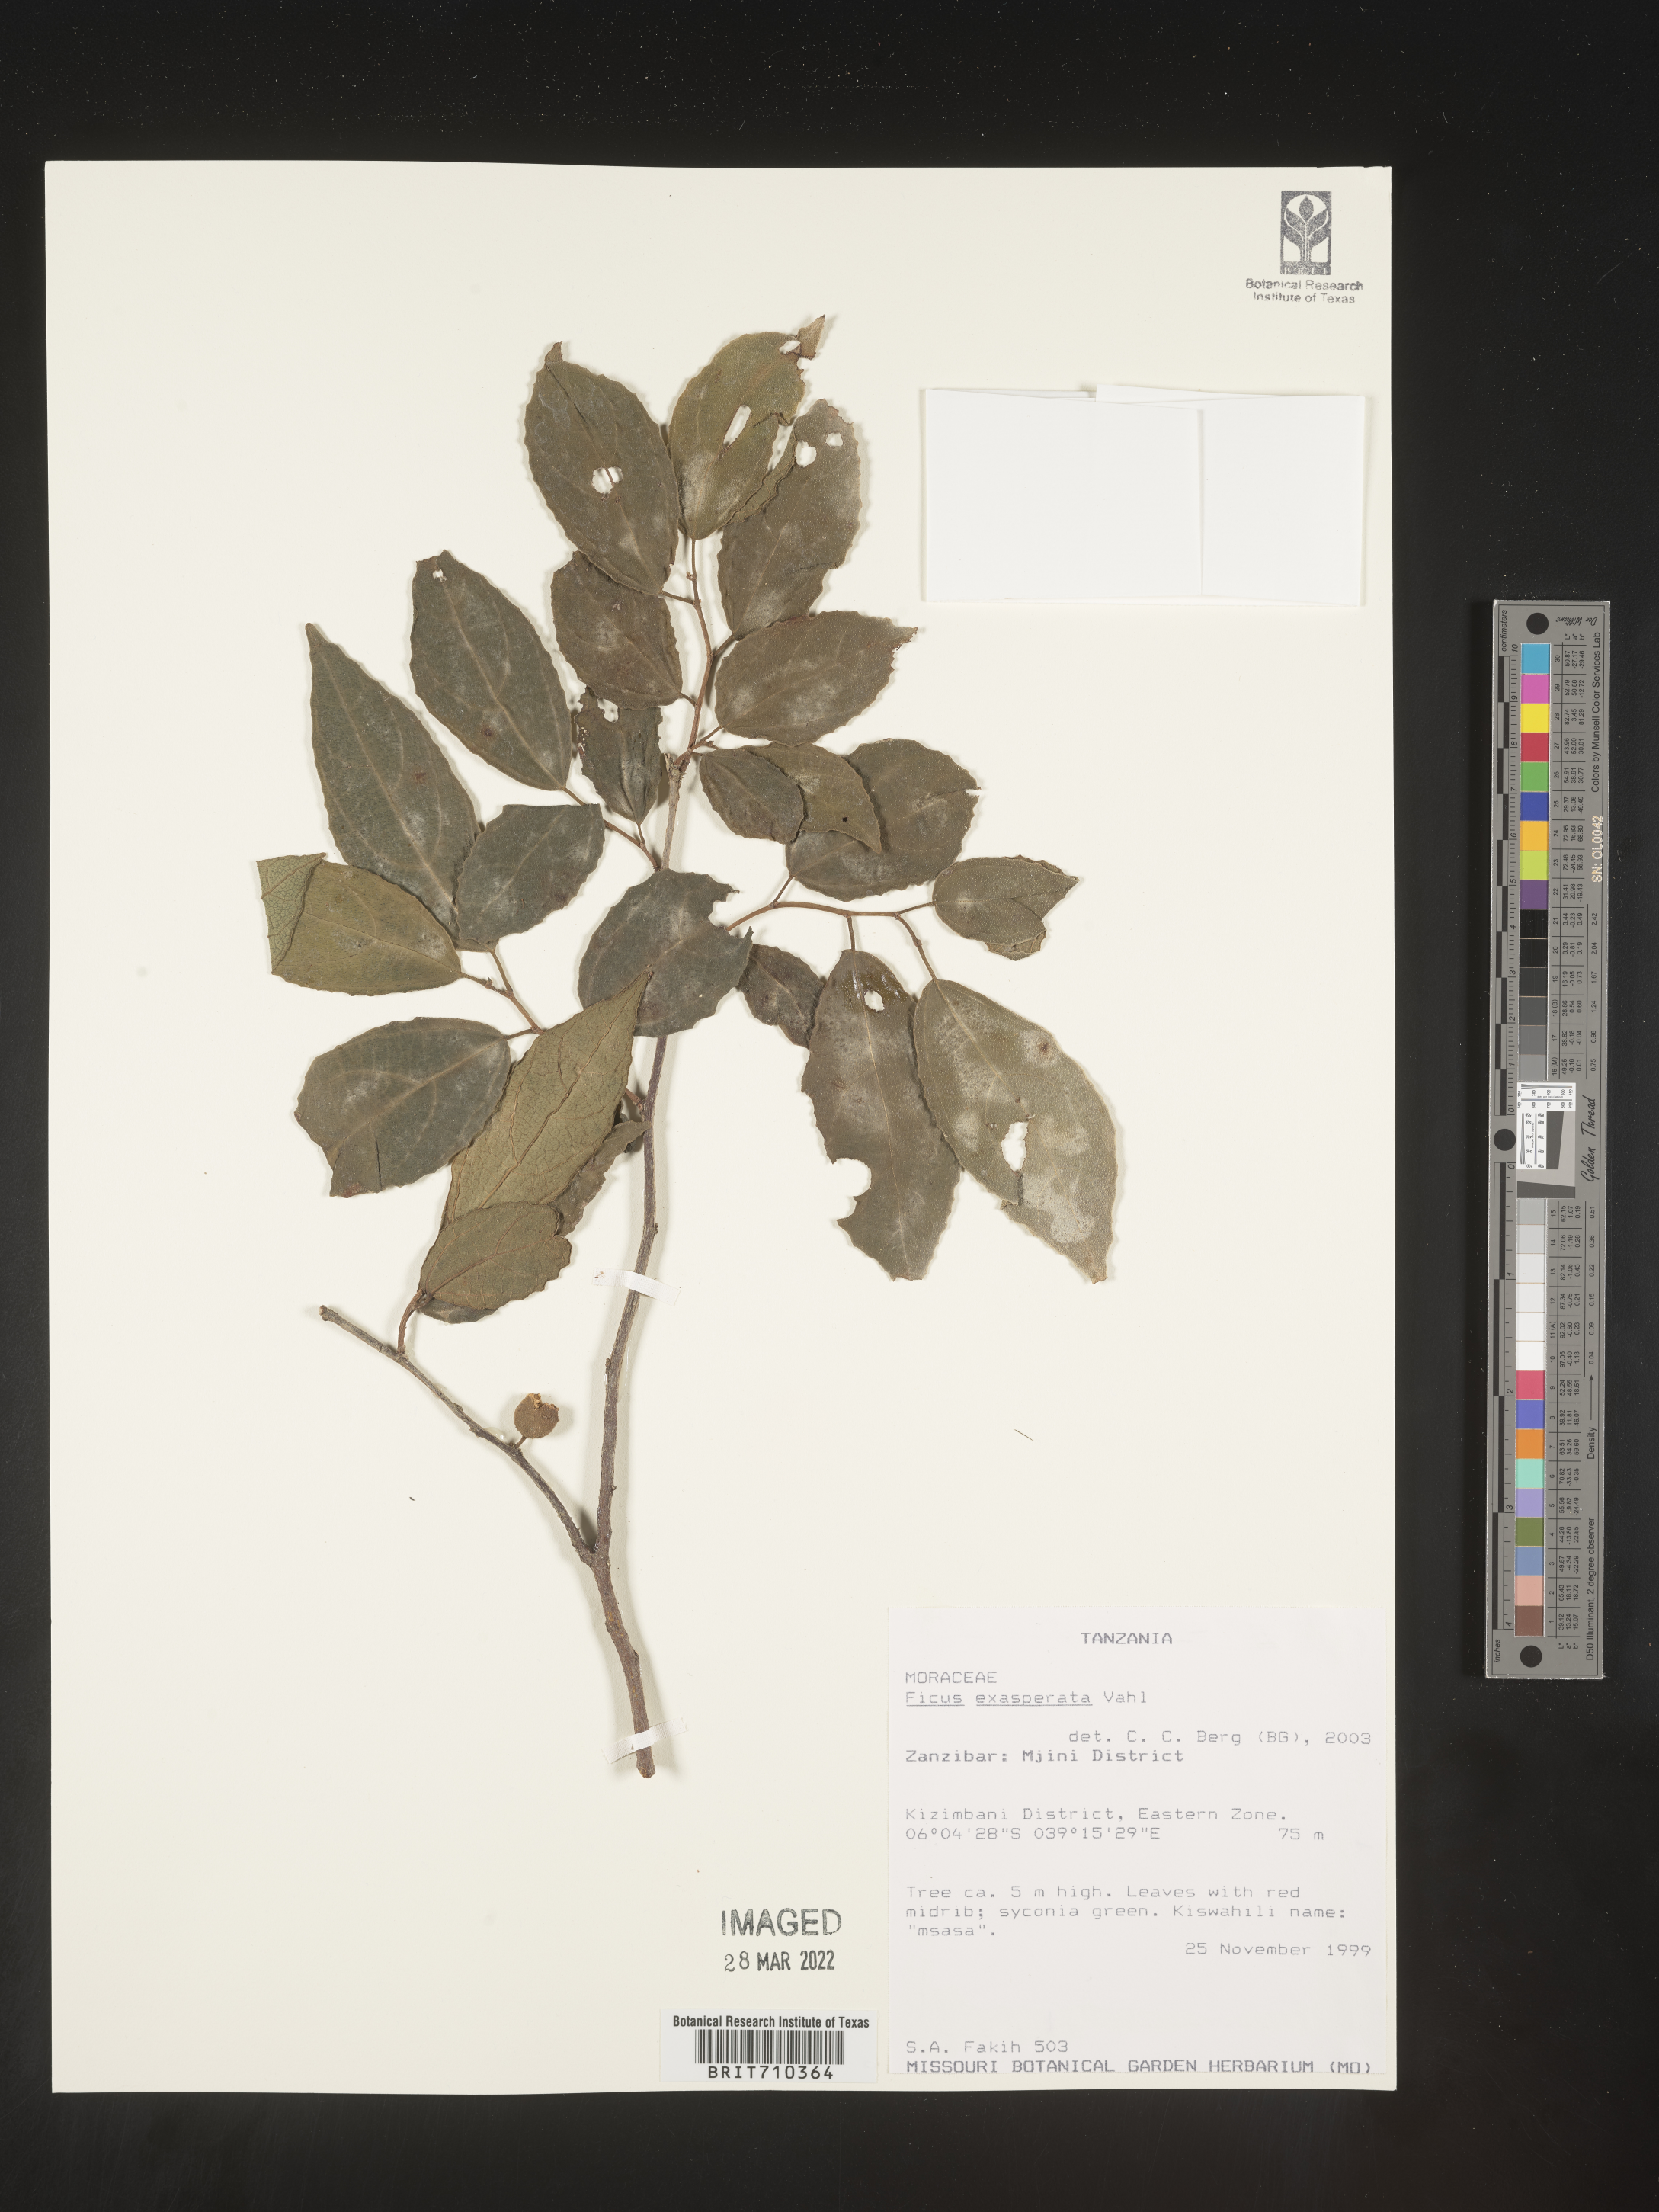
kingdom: Plantae
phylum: Tracheophyta
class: Magnoliopsida
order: Rosales
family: Moraceae
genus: Ficus
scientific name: Ficus
